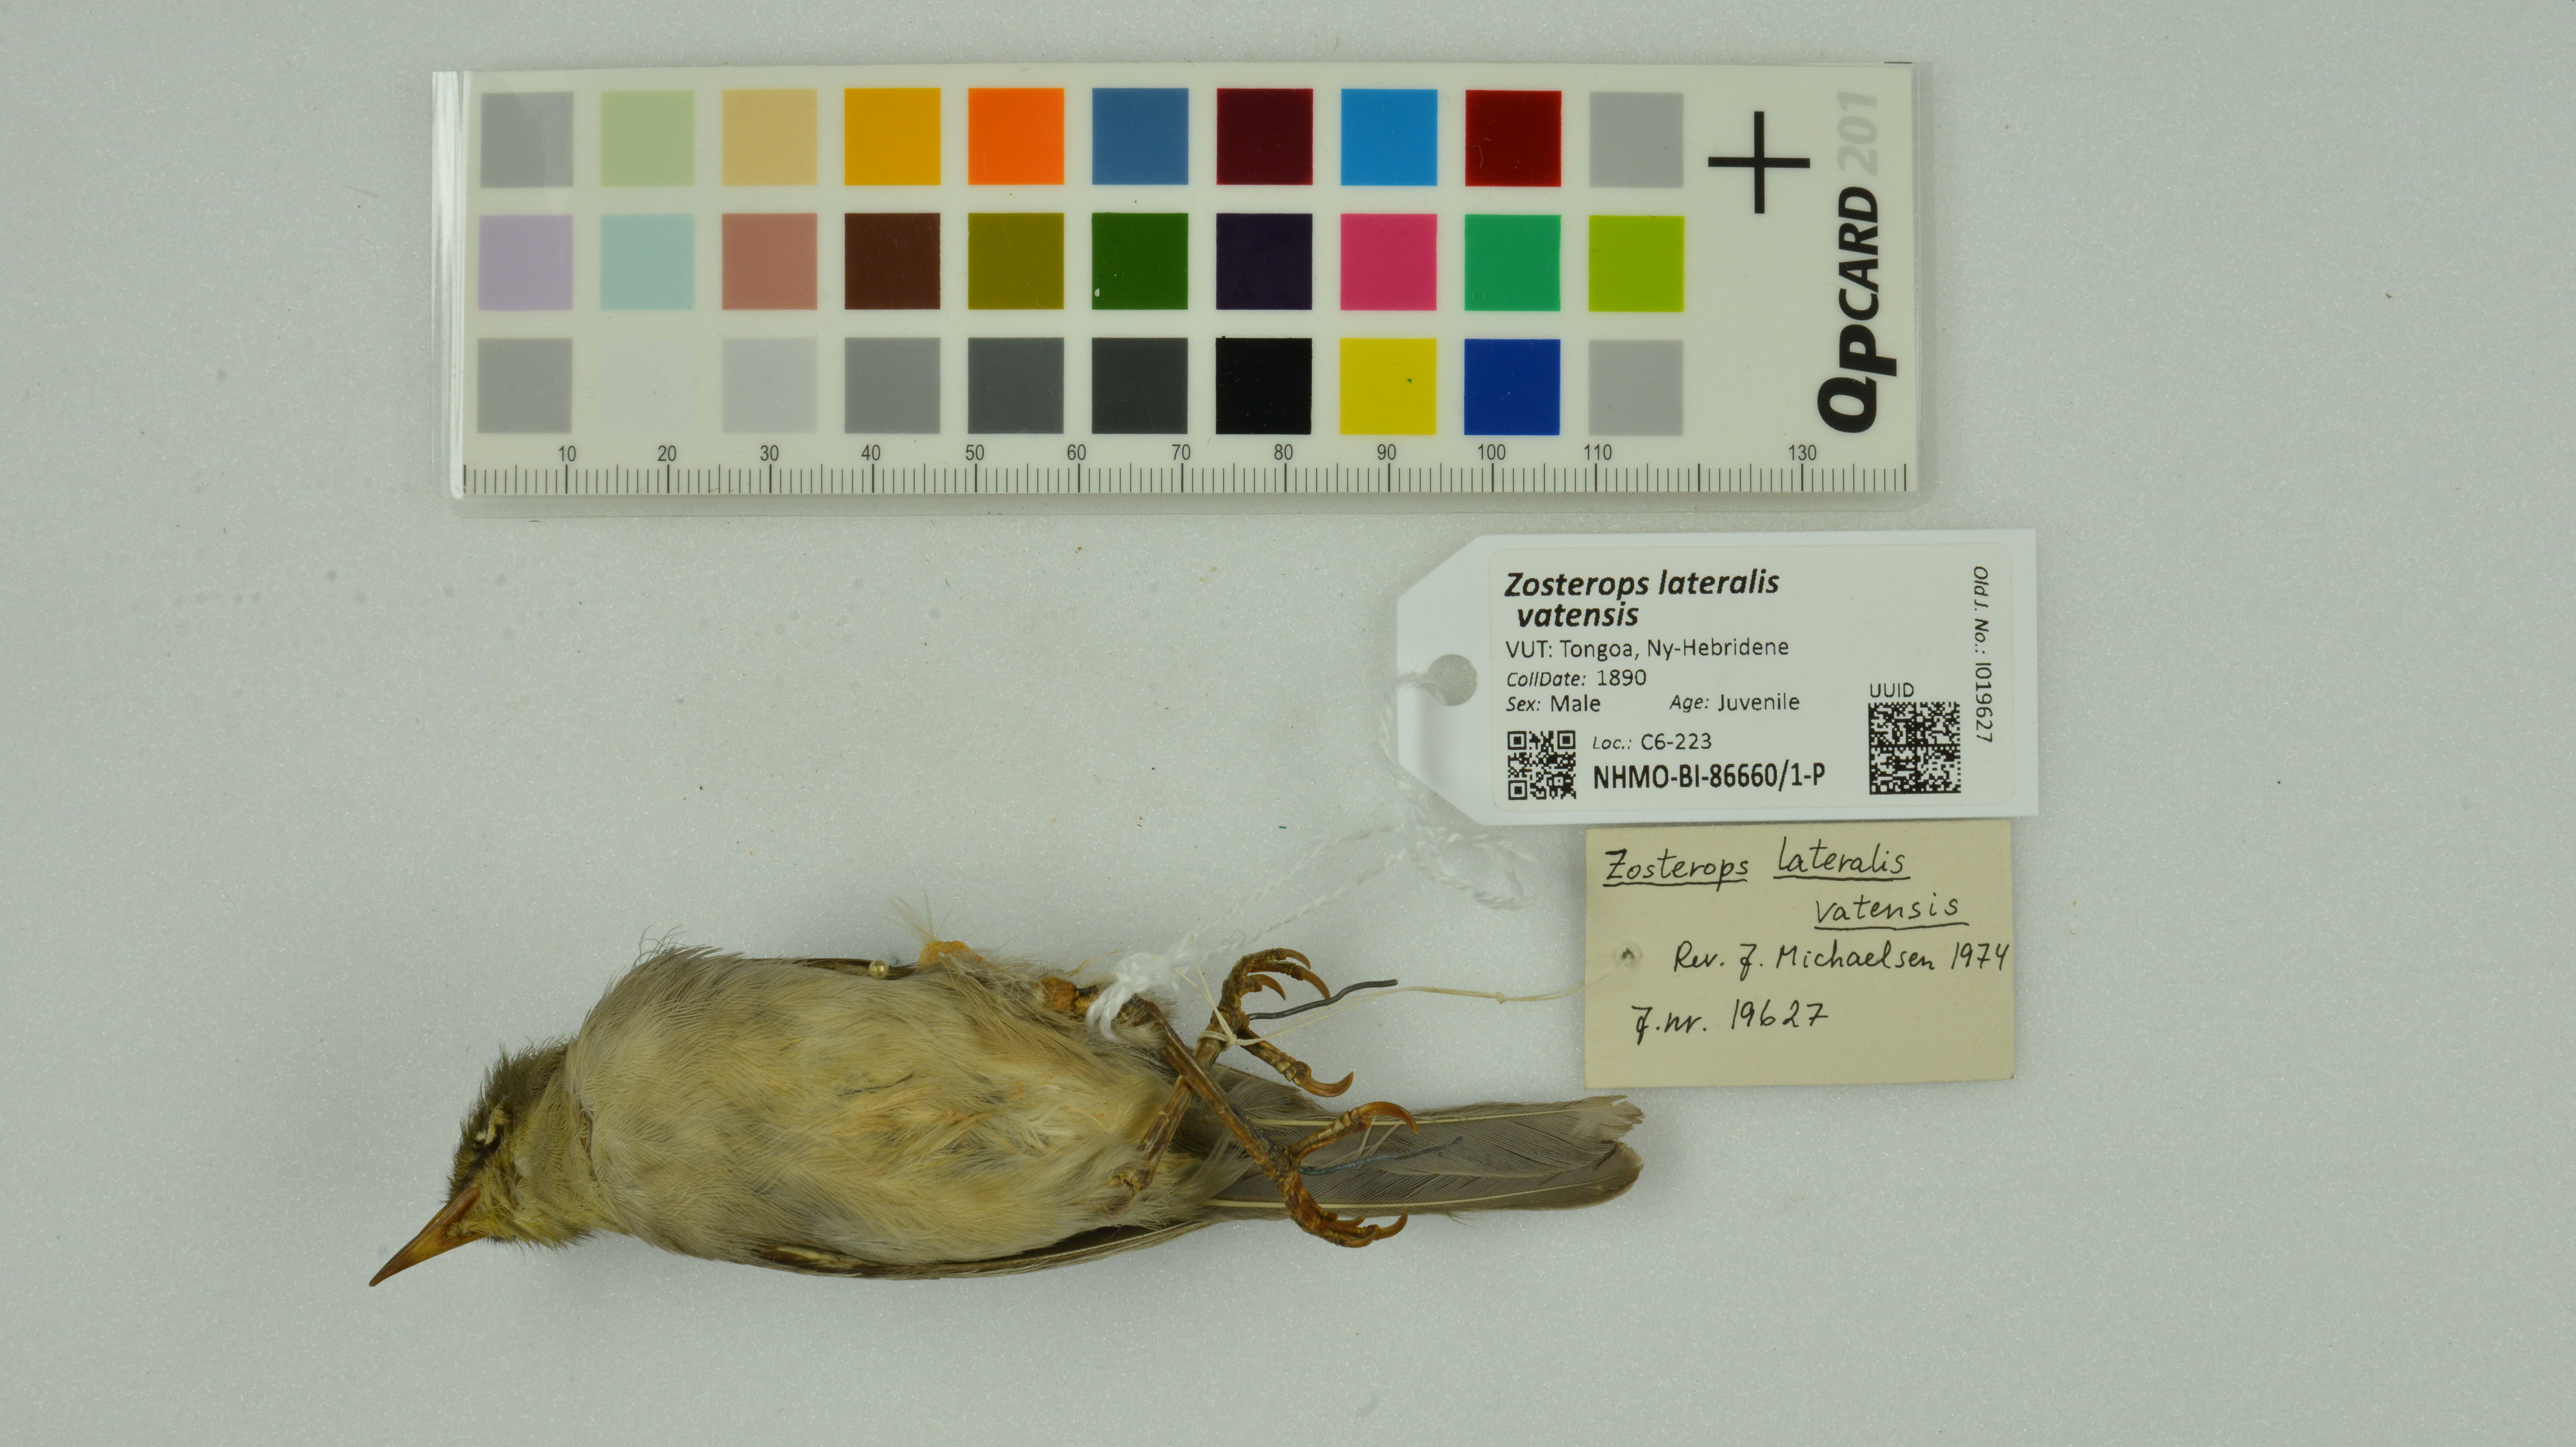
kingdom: Animalia
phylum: Chordata
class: Aves
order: Passeriformes
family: Zosteropidae
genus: Zosterops
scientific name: Zosterops lateralis
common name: Silvereye
